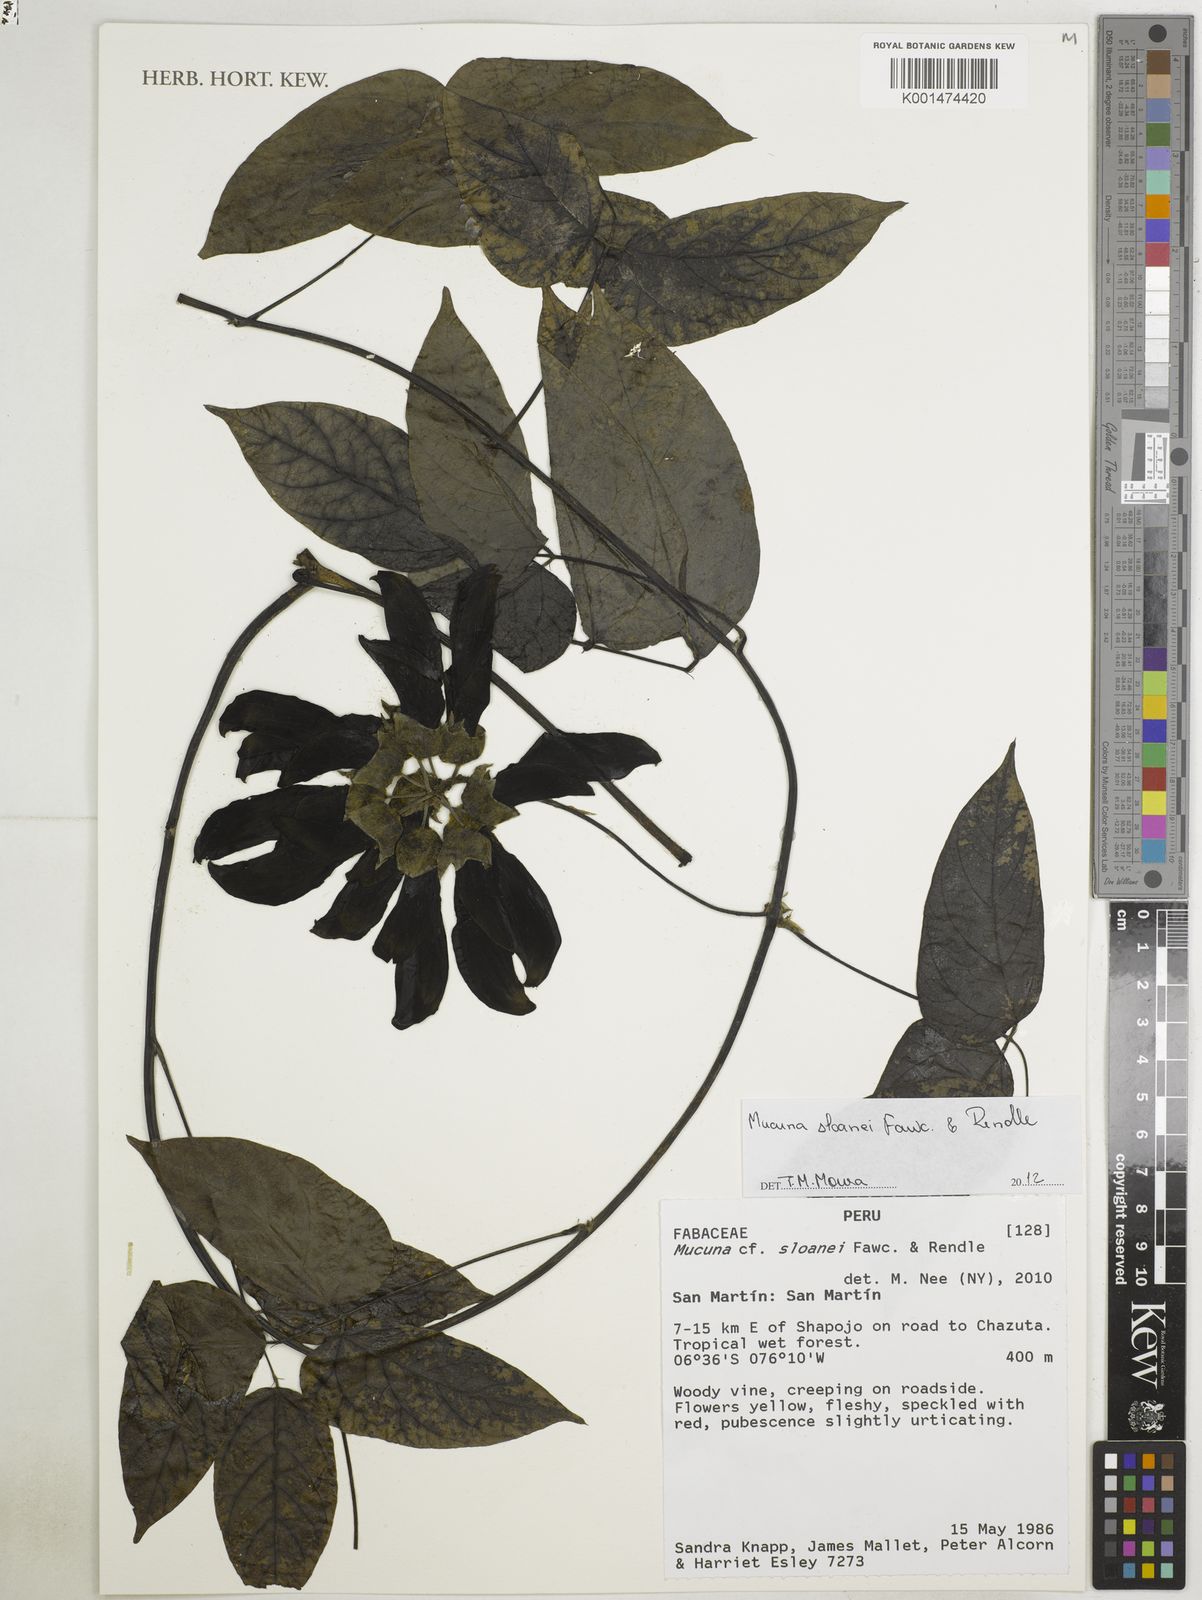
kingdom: Plantae
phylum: Tracheophyta
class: Magnoliopsida
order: Fabales
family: Fabaceae
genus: Mucuna
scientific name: Mucuna sloanei
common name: Horse-eye bean
